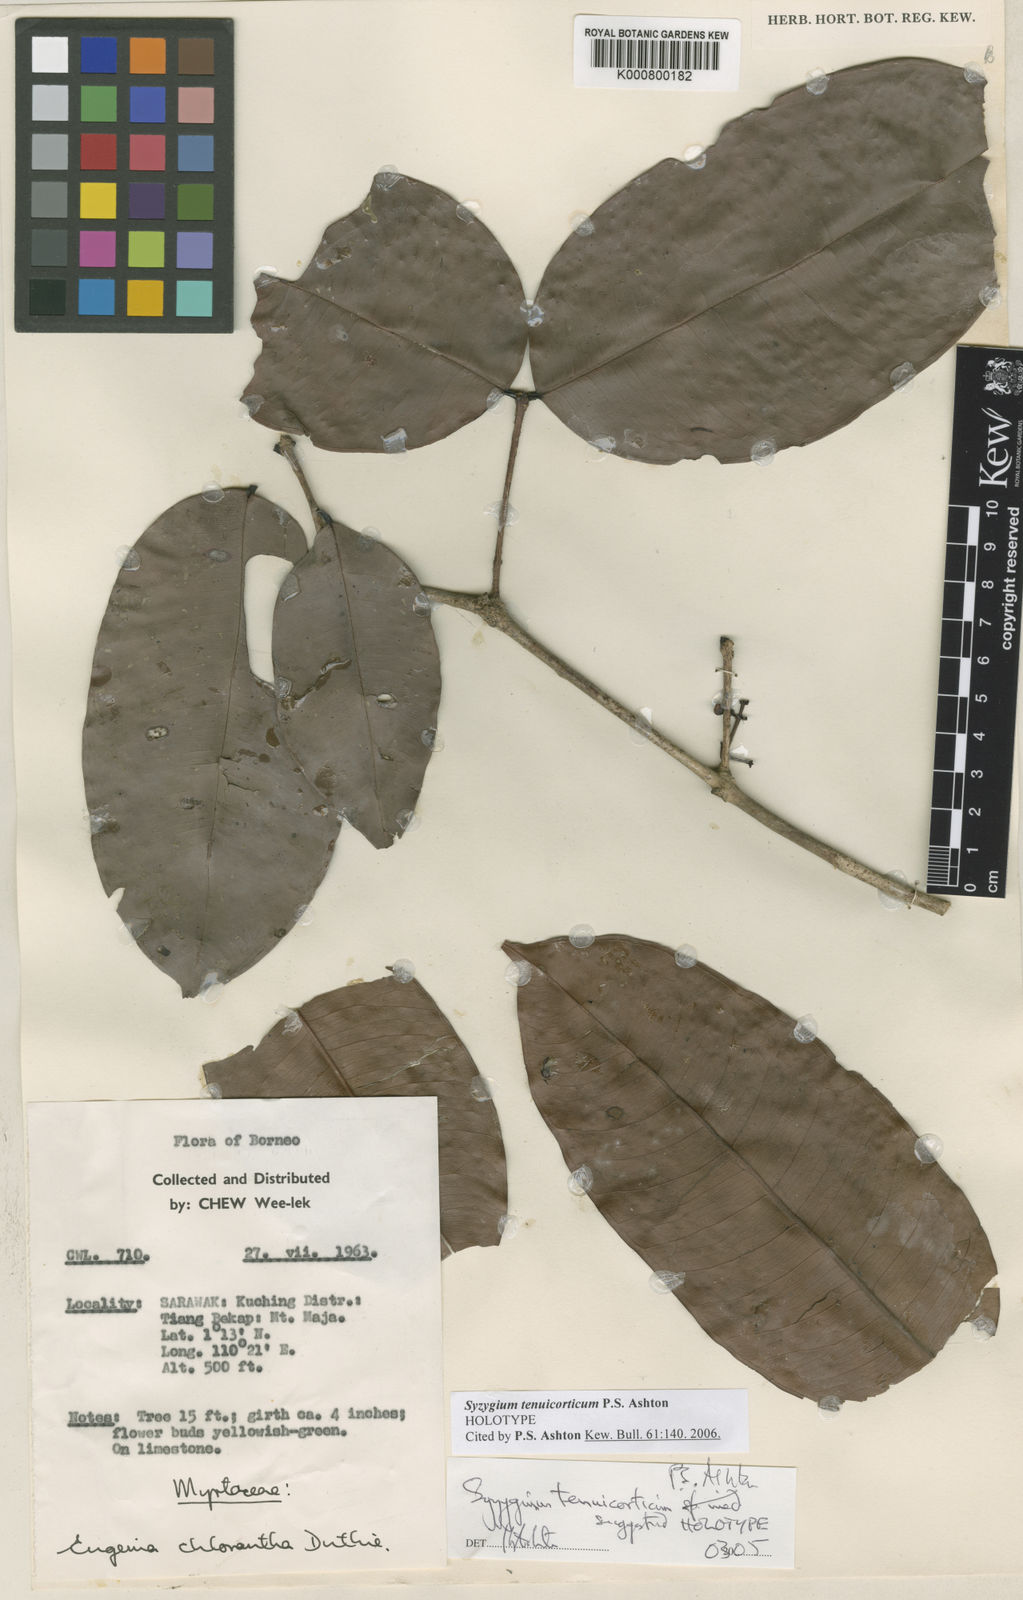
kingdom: Plantae
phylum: Tracheophyta
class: Magnoliopsida
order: Myrtales
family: Myrtaceae
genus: Syzygium
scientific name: Syzygium racemosum
